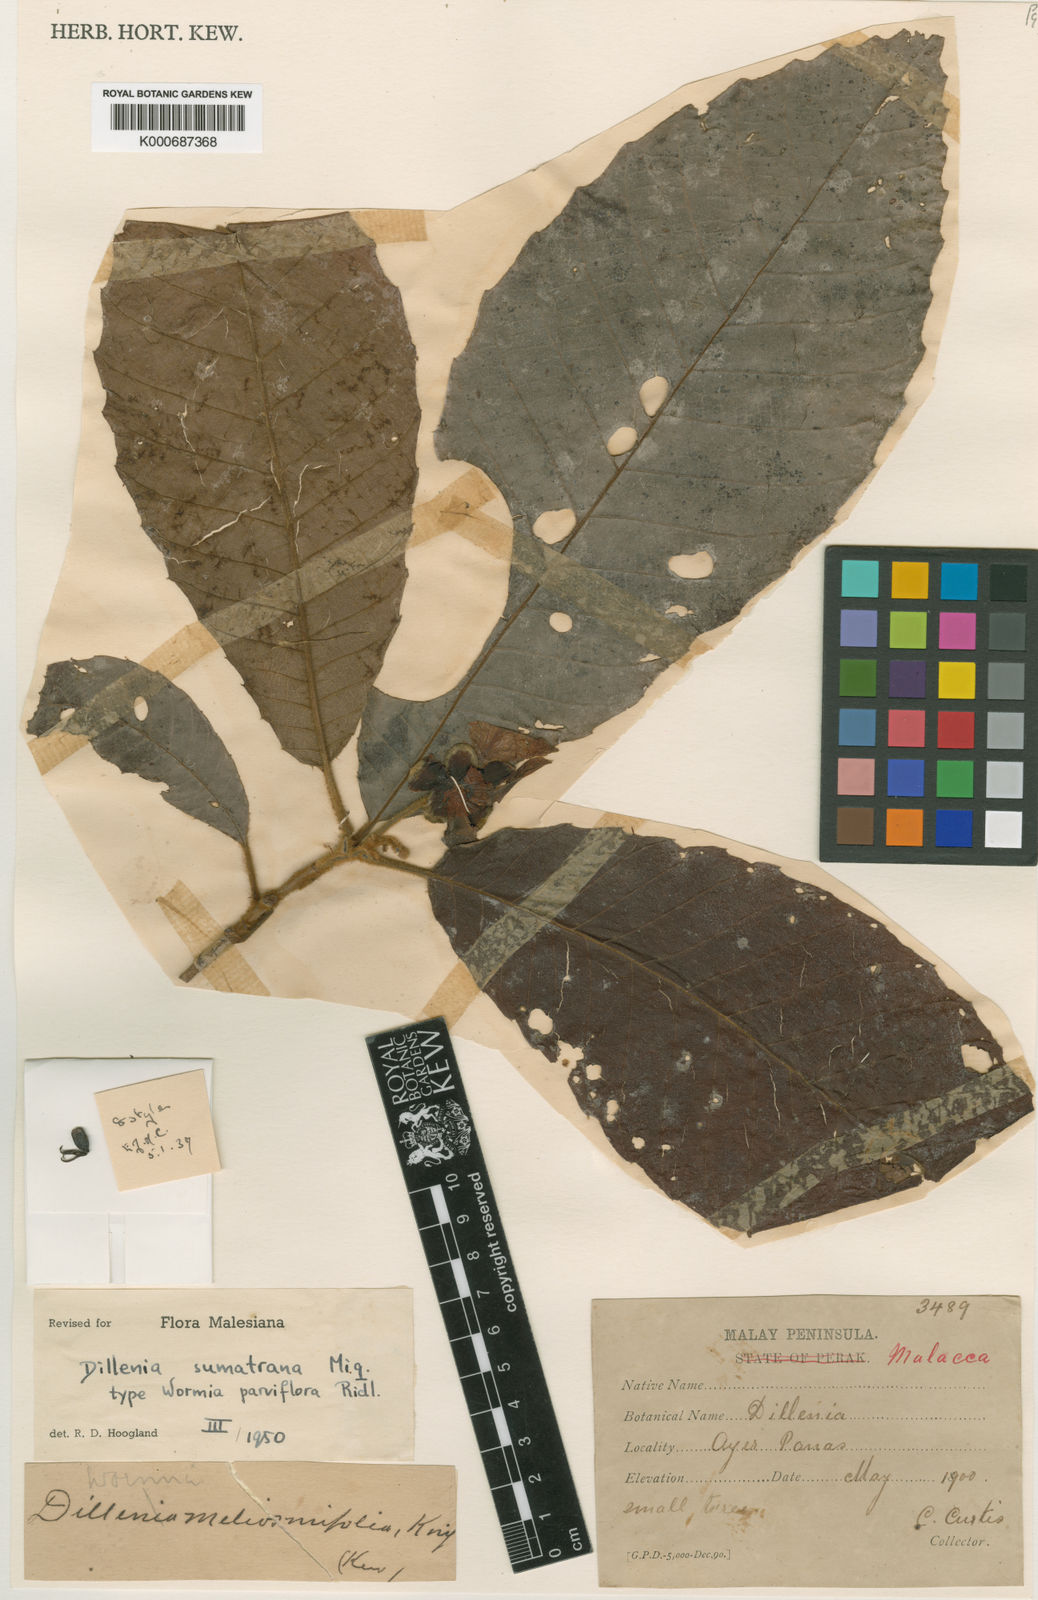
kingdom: Plantae
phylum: Tracheophyta
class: Magnoliopsida
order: Dilleniales
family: Dilleniaceae
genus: Dillenia
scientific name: Dillenia sumatrana
